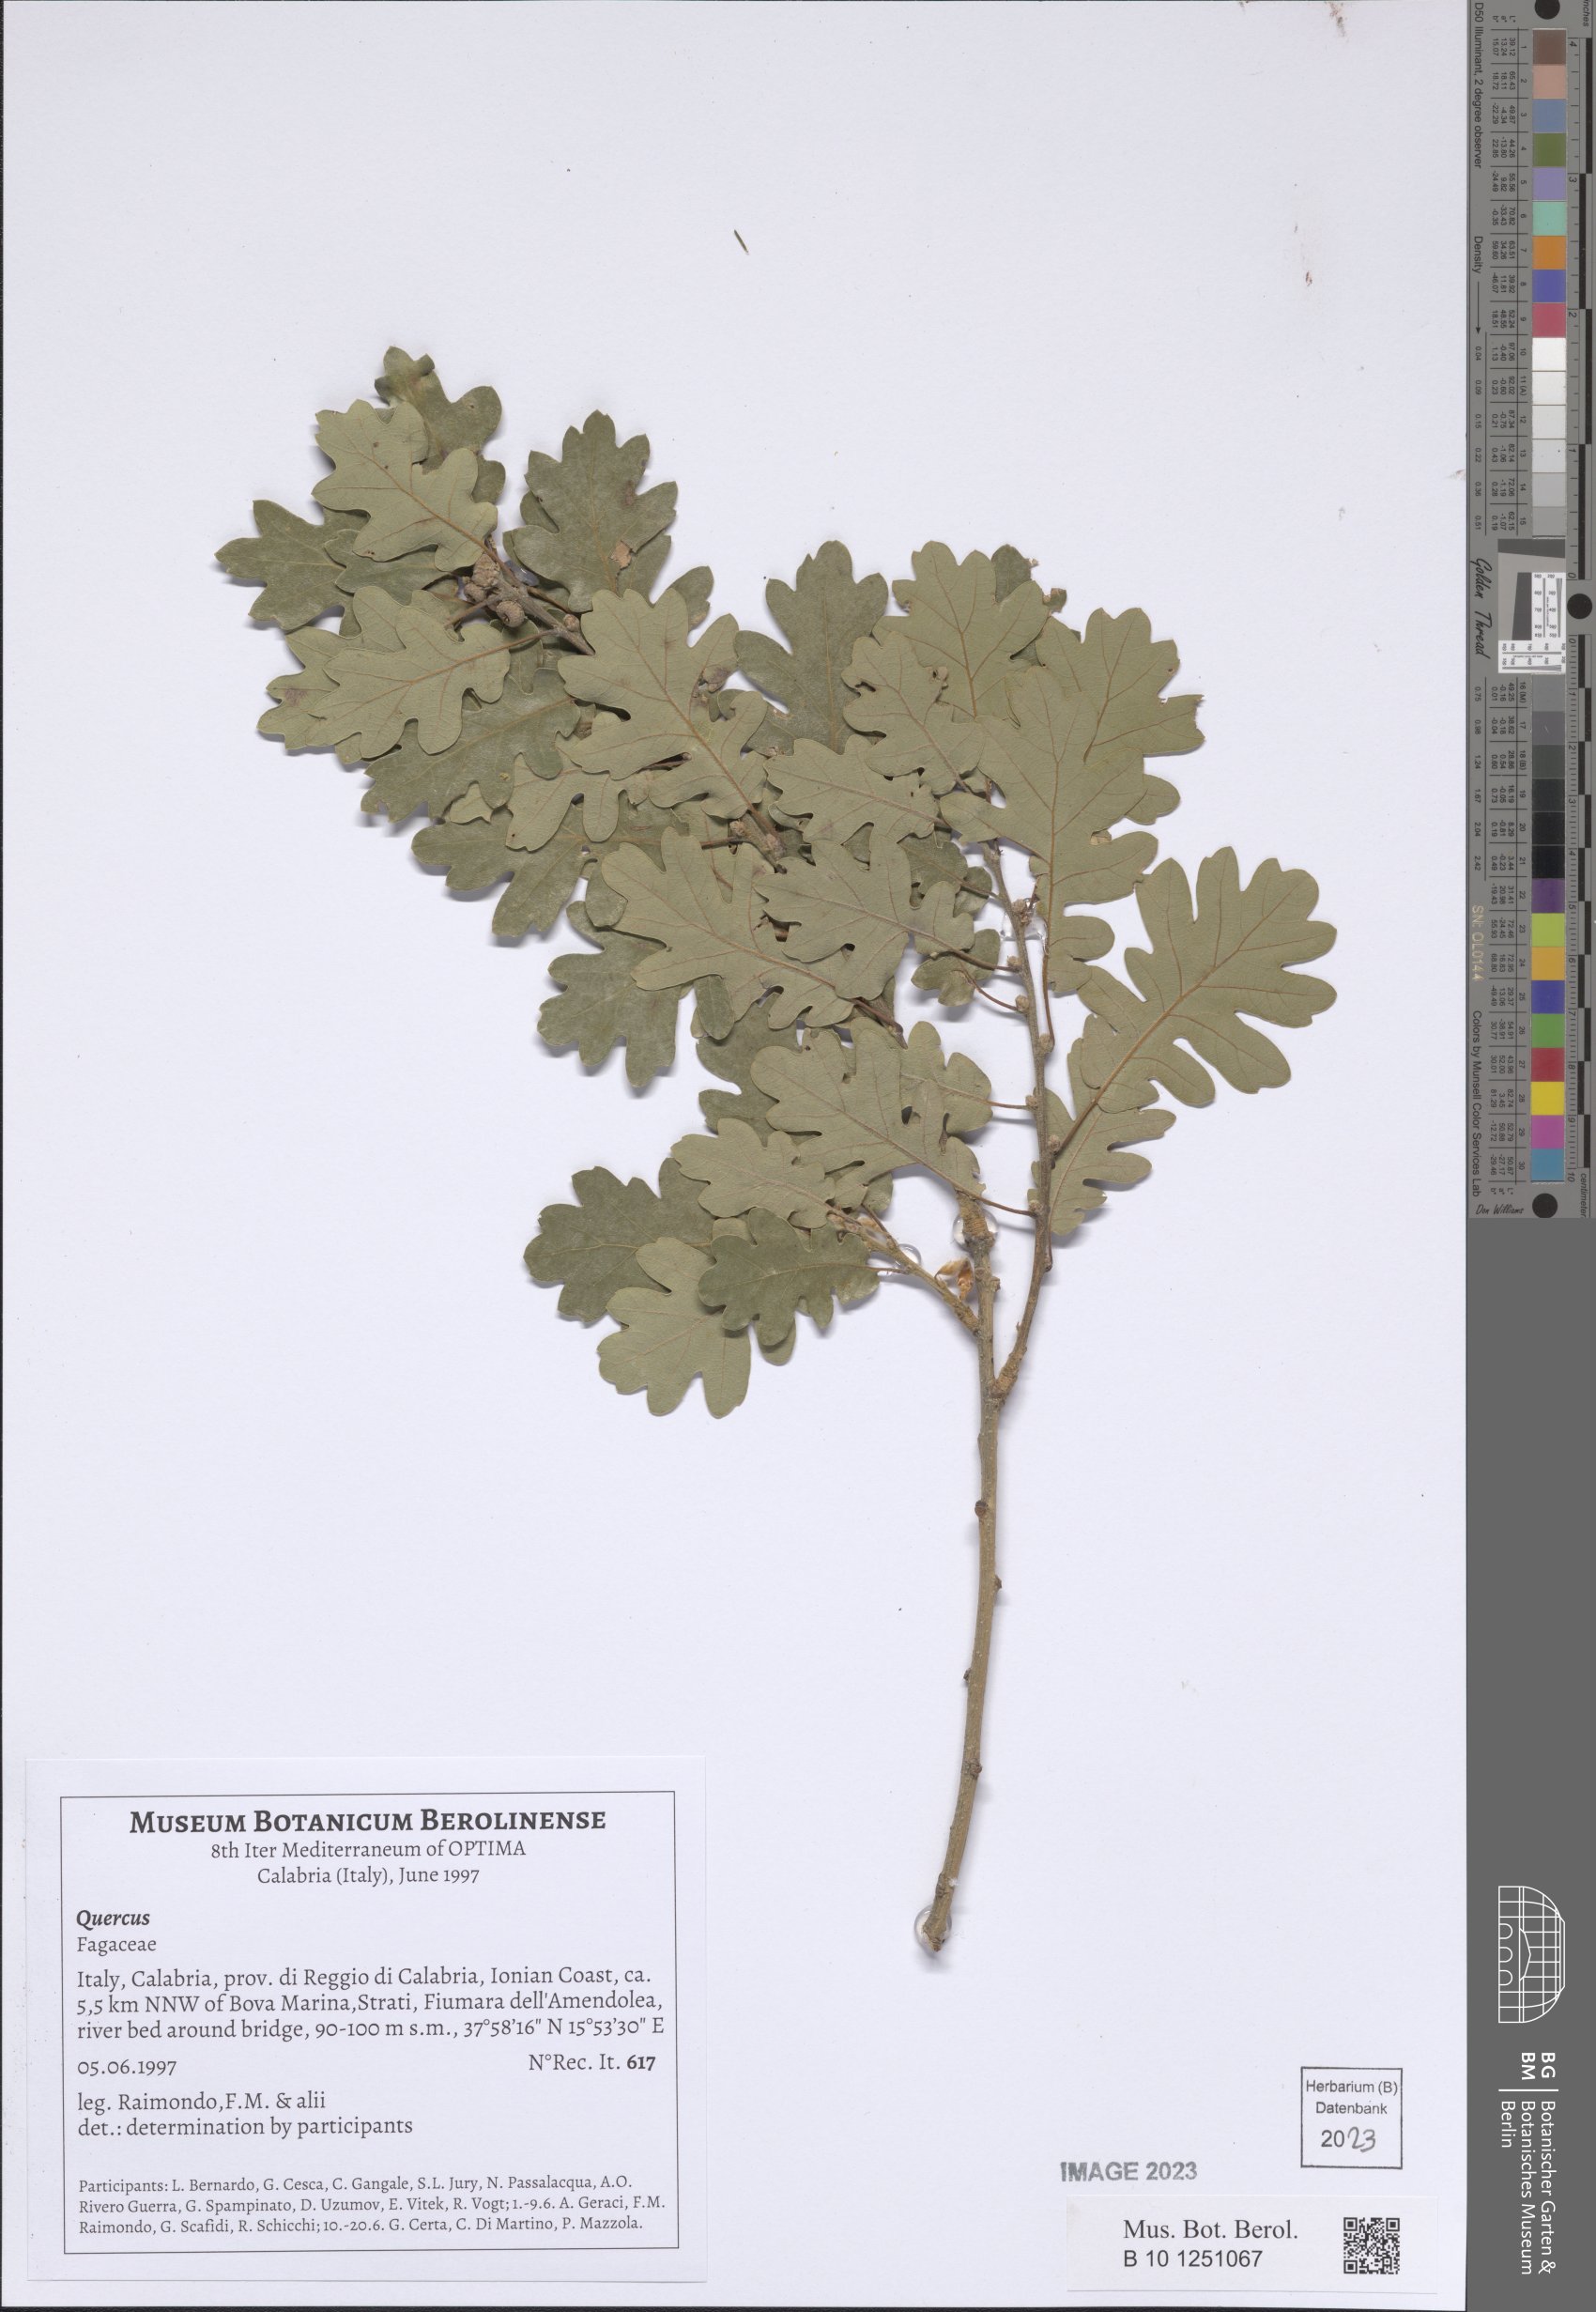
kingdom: Plantae
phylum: Tracheophyta
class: Magnoliopsida
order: Fagales
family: Fagaceae
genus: Quercus
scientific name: Quercus
